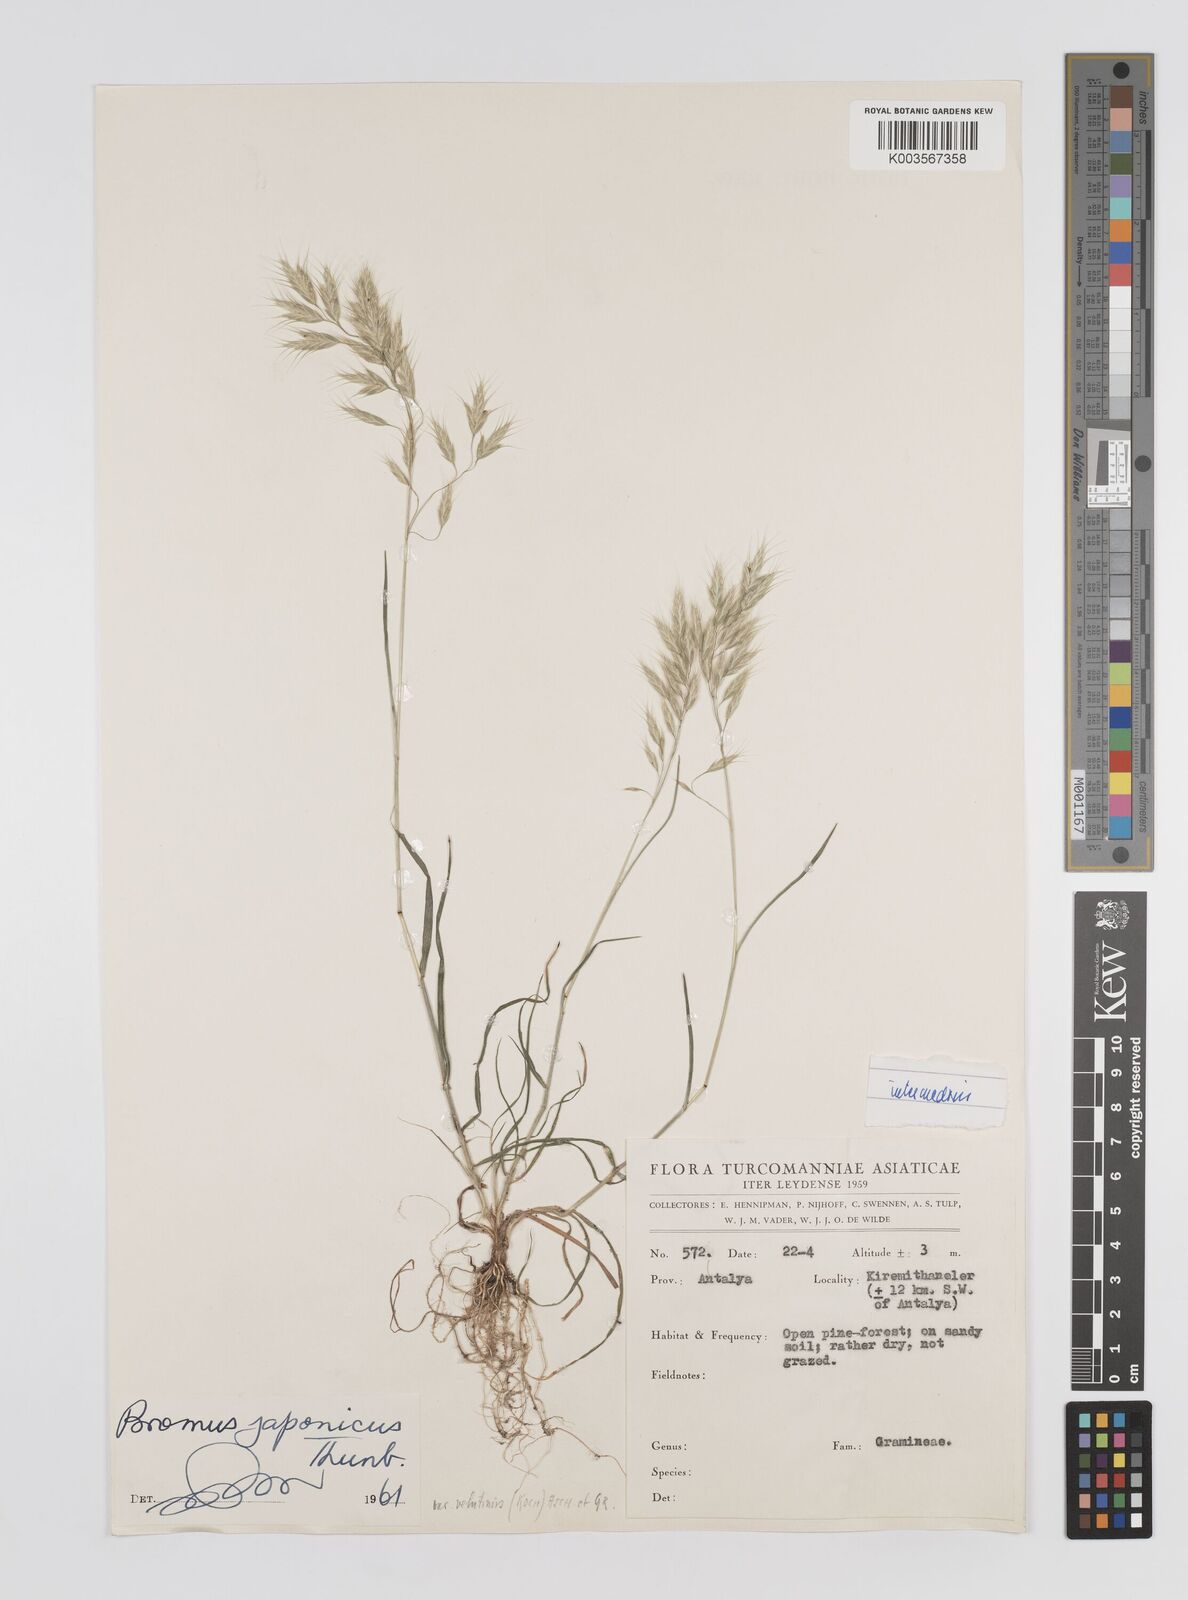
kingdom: Plantae
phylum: Tracheophyta
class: Liliopsida
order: Poales
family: Poaceae
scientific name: Poaceae
